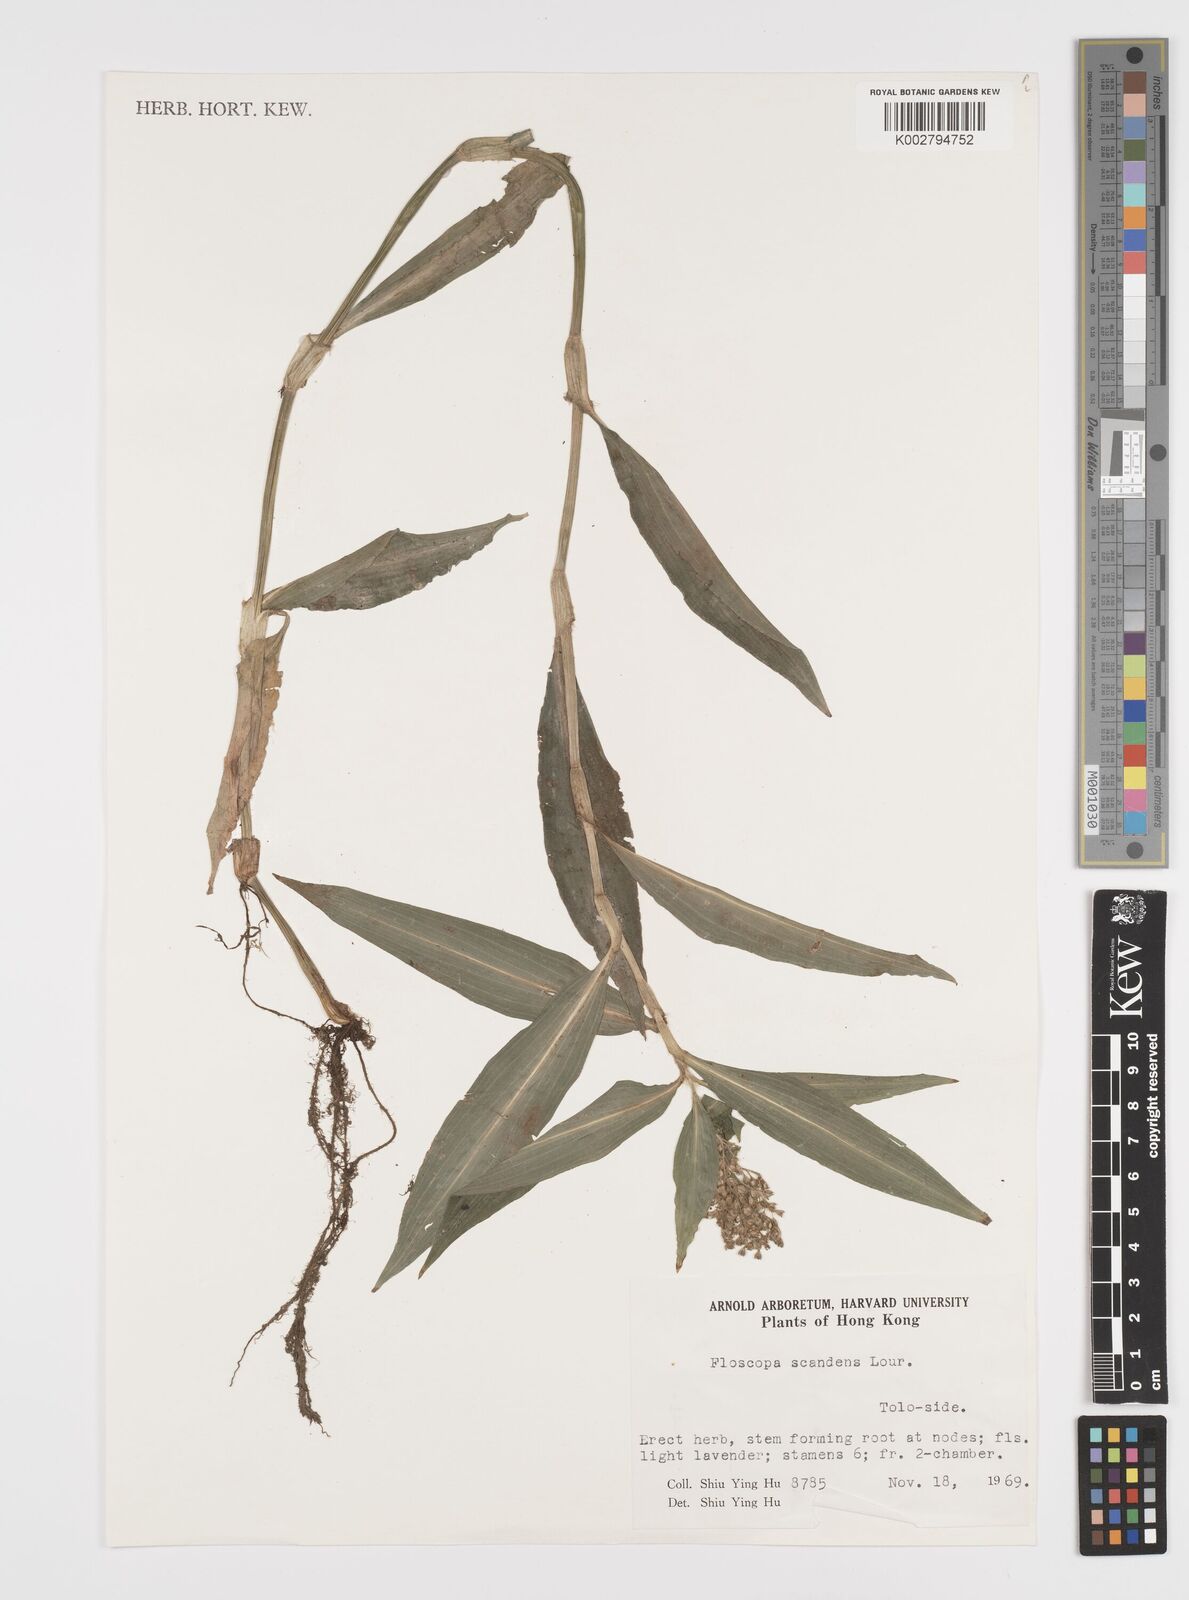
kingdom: Plantae
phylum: Tracheophyta
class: Liliopsida
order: Commelinales
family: Commelinaceae
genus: Floscopa
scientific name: Floscopa scandens
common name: Climbing flower cup
